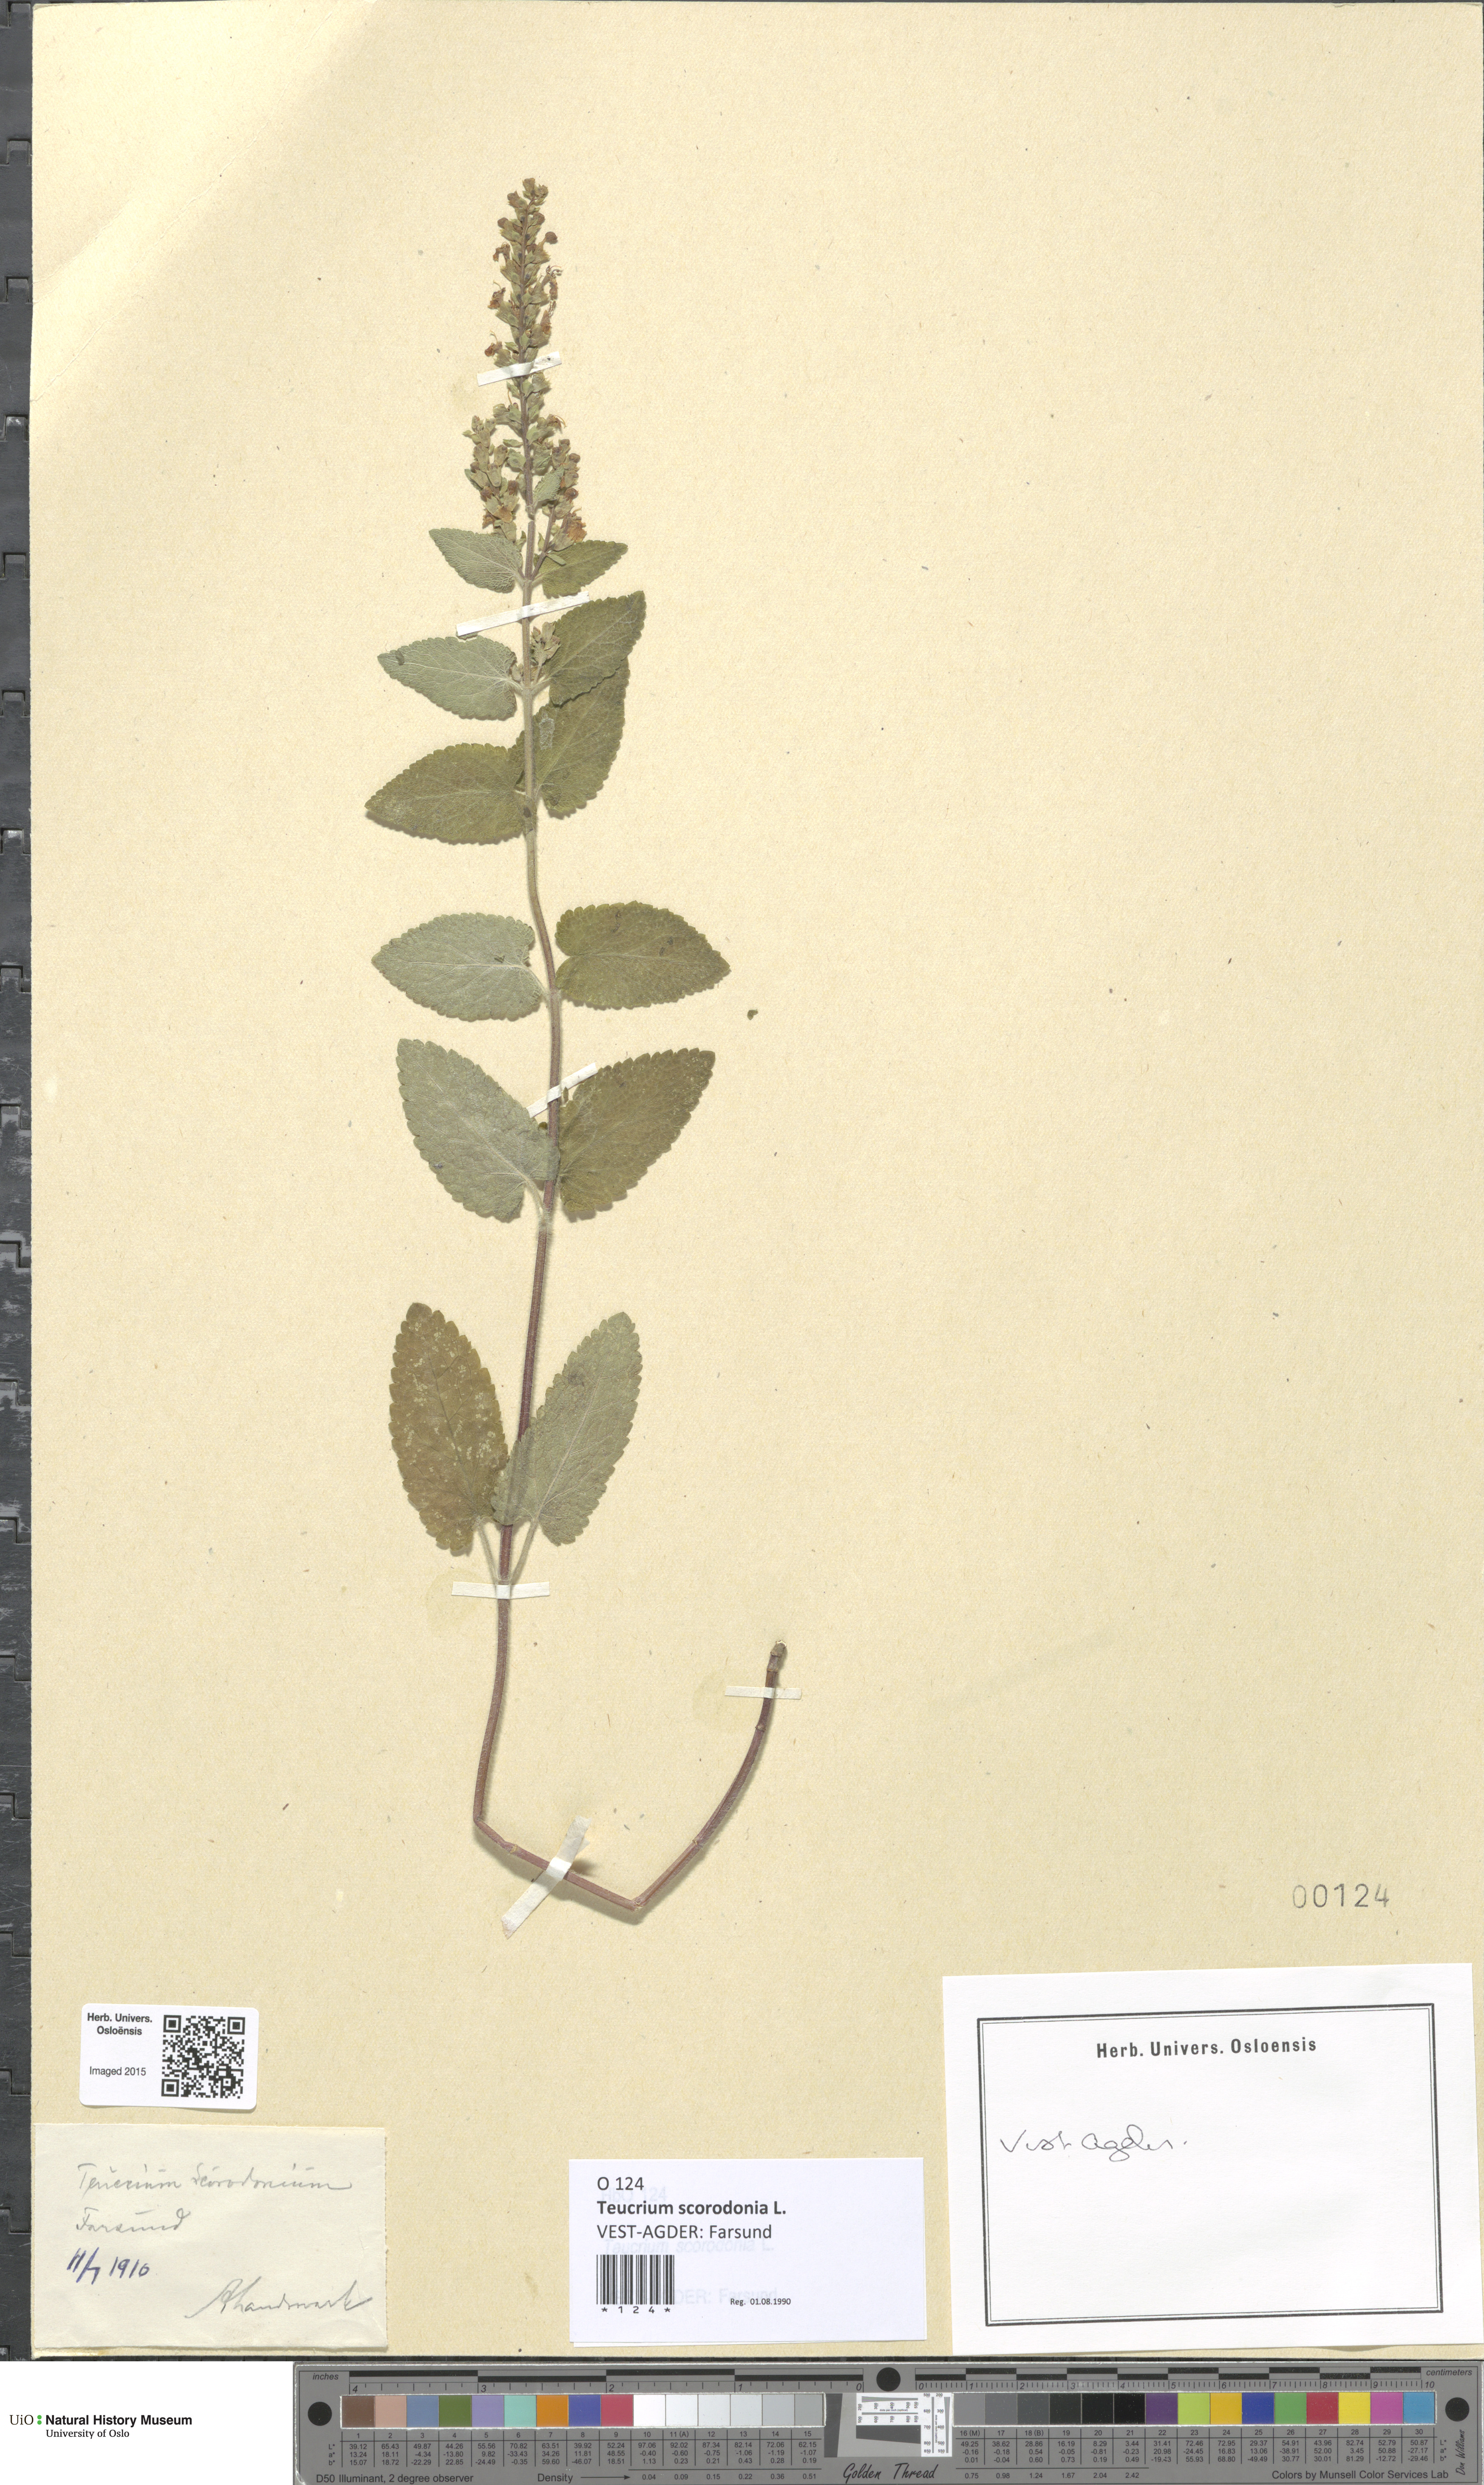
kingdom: Plantae
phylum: Tracheophyta
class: Magnoliopsida
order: Lamiales
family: Lamiaceae
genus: Teucrium
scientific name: Teucrium scorodonia
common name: Woodland germander
